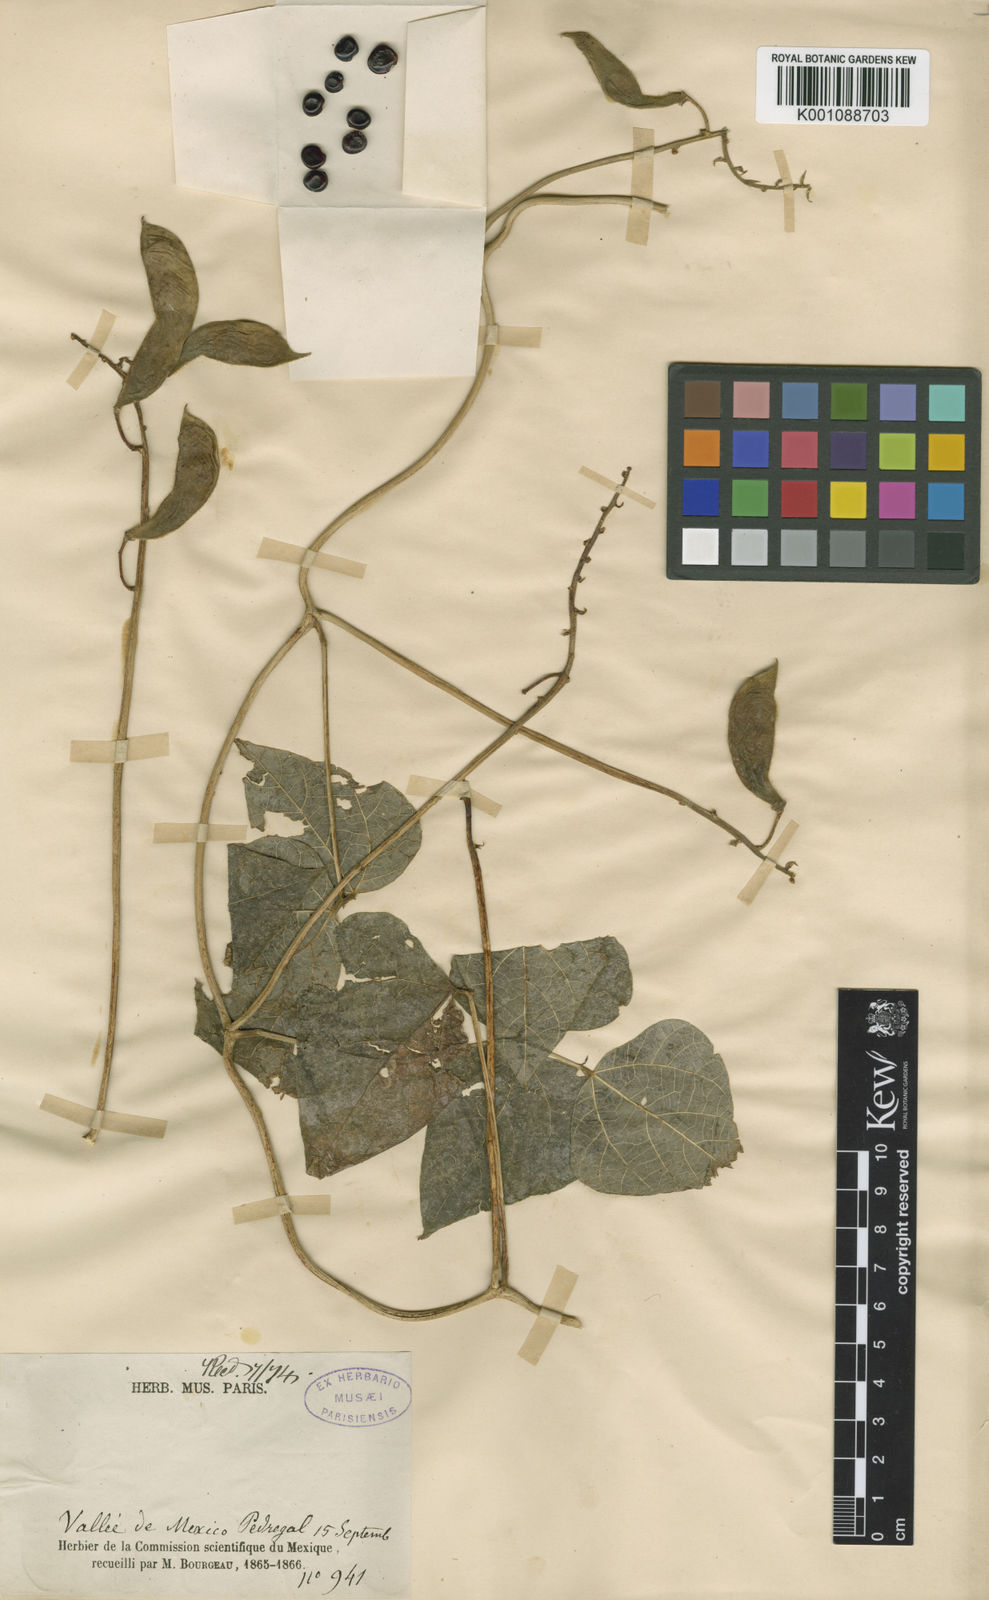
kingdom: Plantae
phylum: Tracheophyta
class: Magnoliopsida
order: Fabales
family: Fabaceae
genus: Phaseolus
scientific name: Phaseolus coccineus
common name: Runner bean
